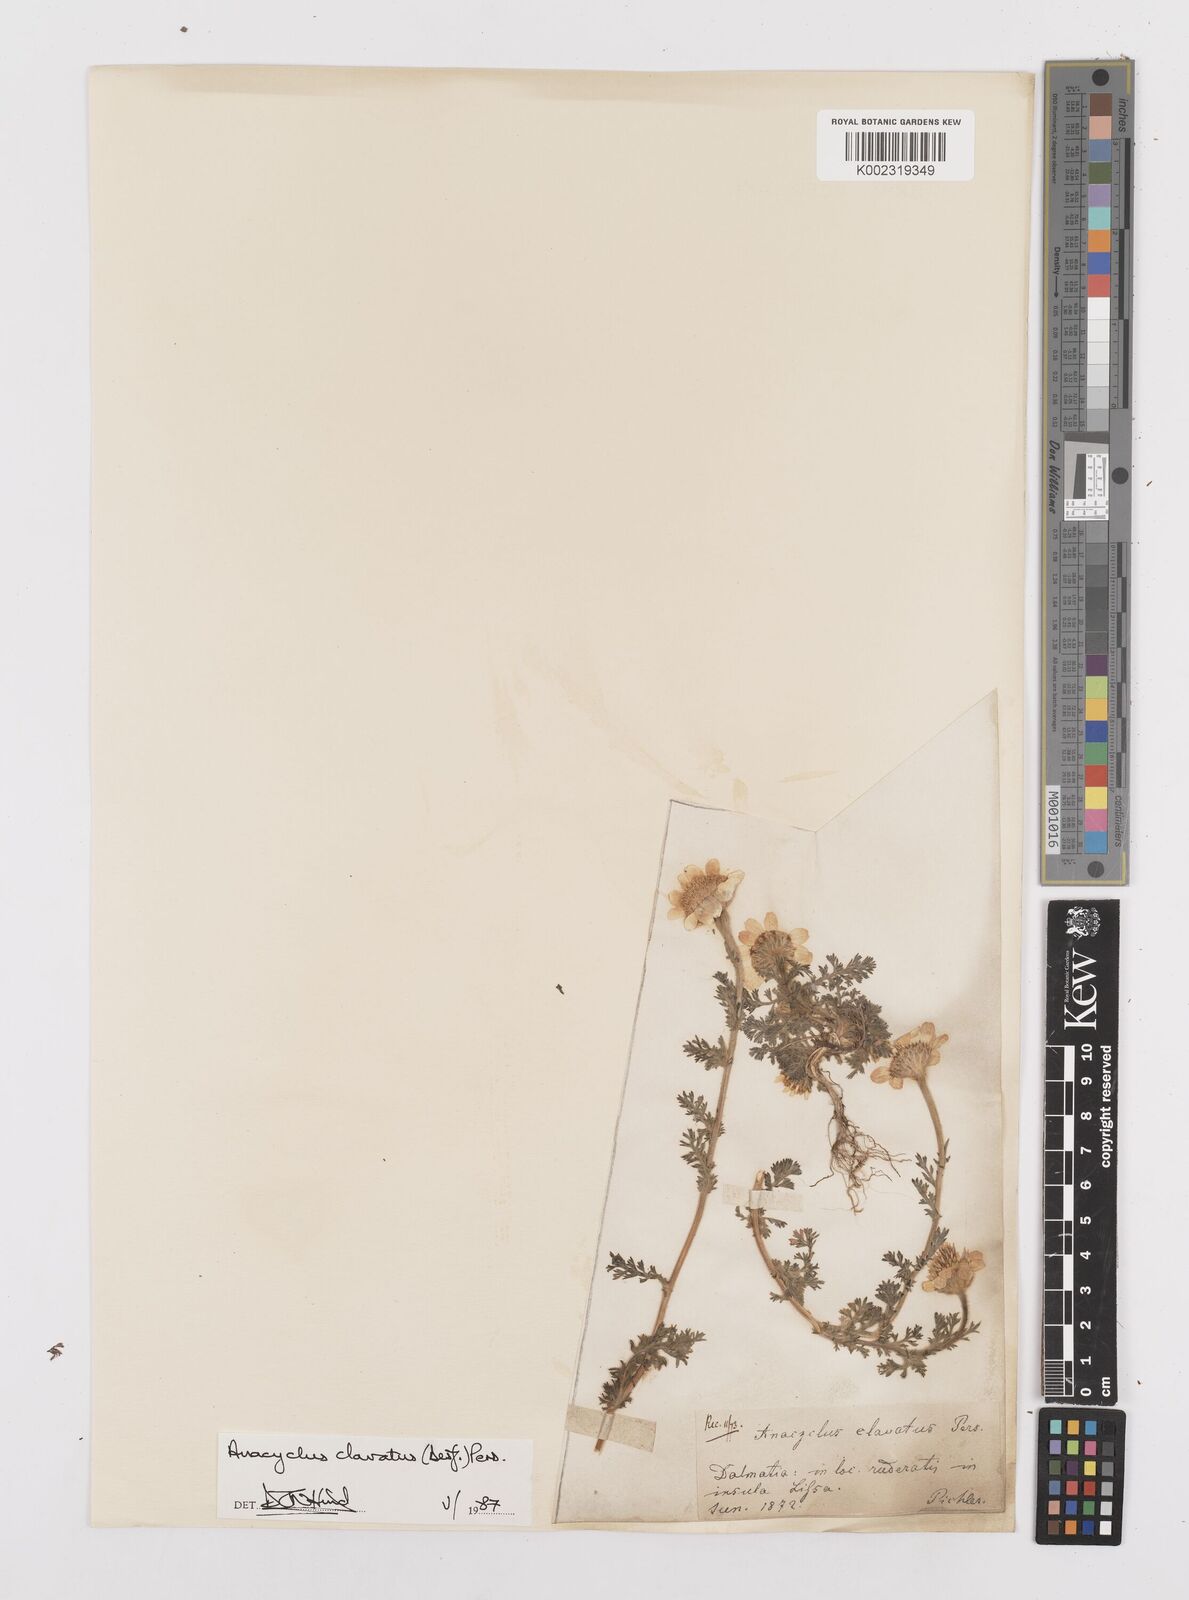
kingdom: Plantae
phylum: Tracheophyta
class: Magnoliopsida
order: Asterales
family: Asteraceae
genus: Anacyclus
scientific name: Anacyclus clavatus
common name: Whitebuttons
